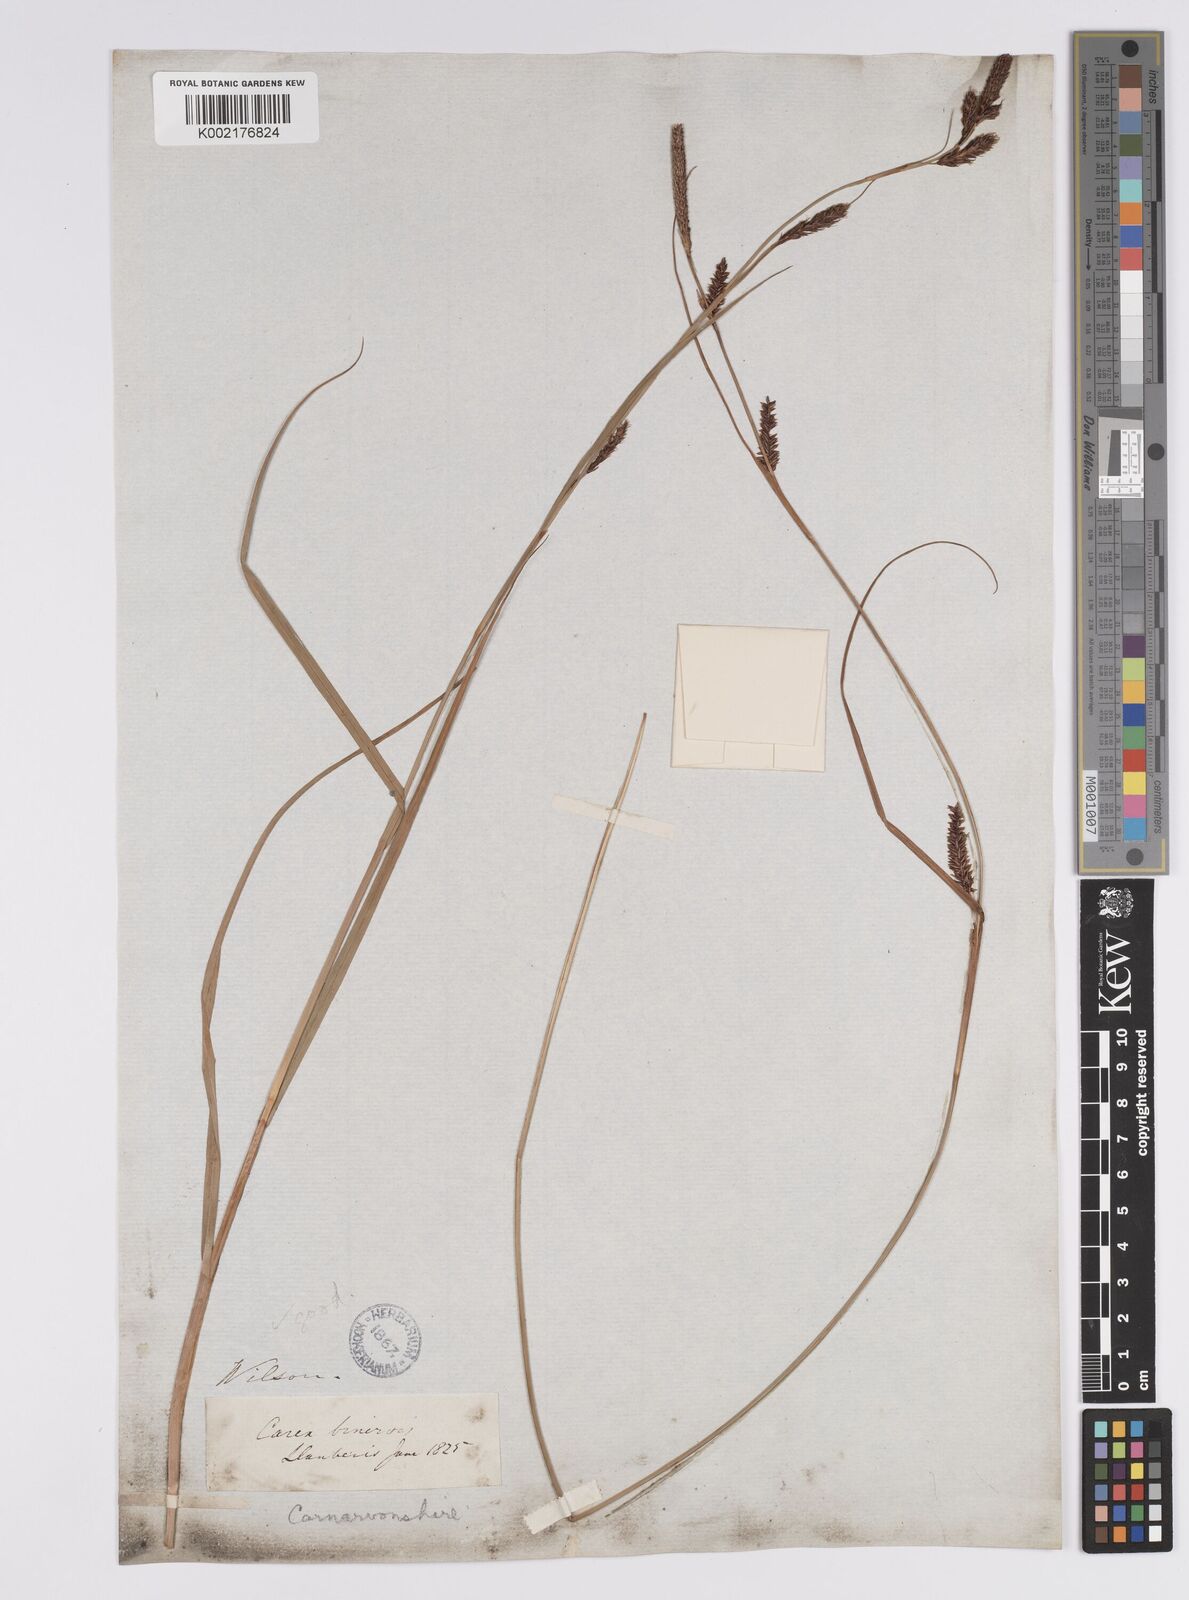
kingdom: Plantae
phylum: Tracheophyta
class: Liliopsida
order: Poales
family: Cyperaceae
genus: Carex
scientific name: Carex binervis
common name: Green-ribbed sedge
